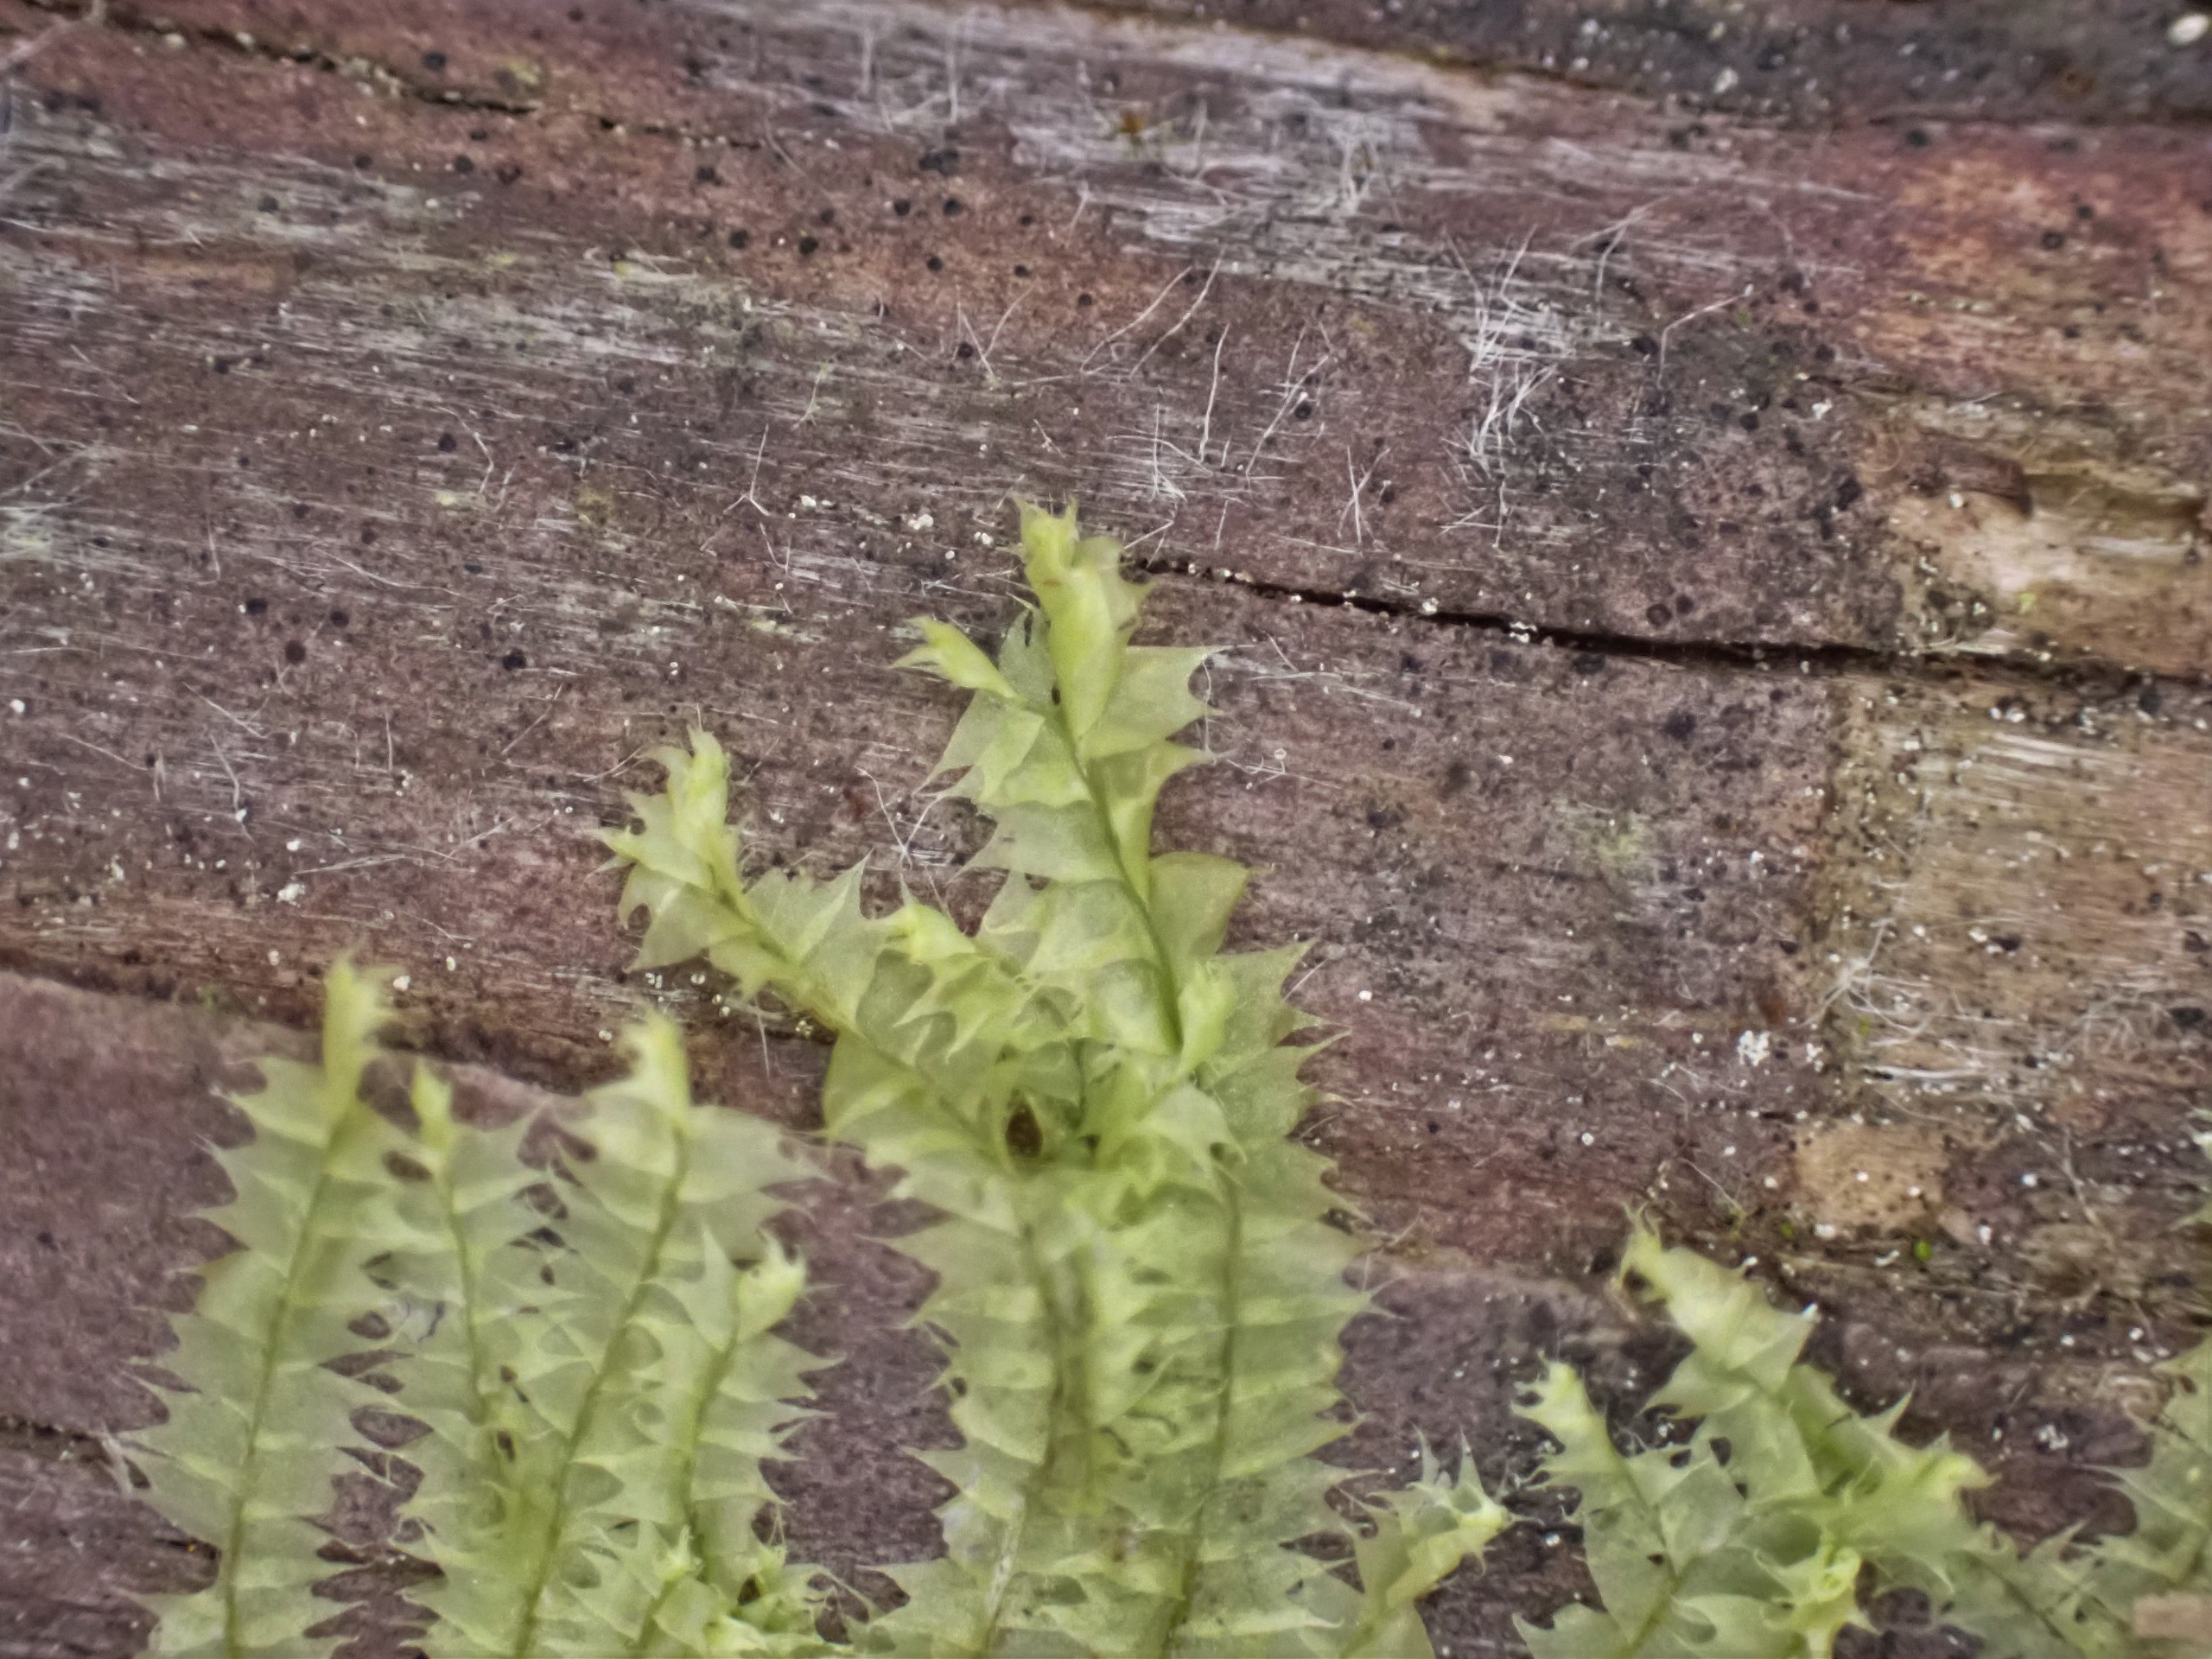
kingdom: Plantae
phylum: Marchantiophyta
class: Jungermanniopsida
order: Jungermanniales
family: Lophocoleaceae
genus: Lophocolea
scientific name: Lophocolea bidentata
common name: Sylspidset kamsvøb
